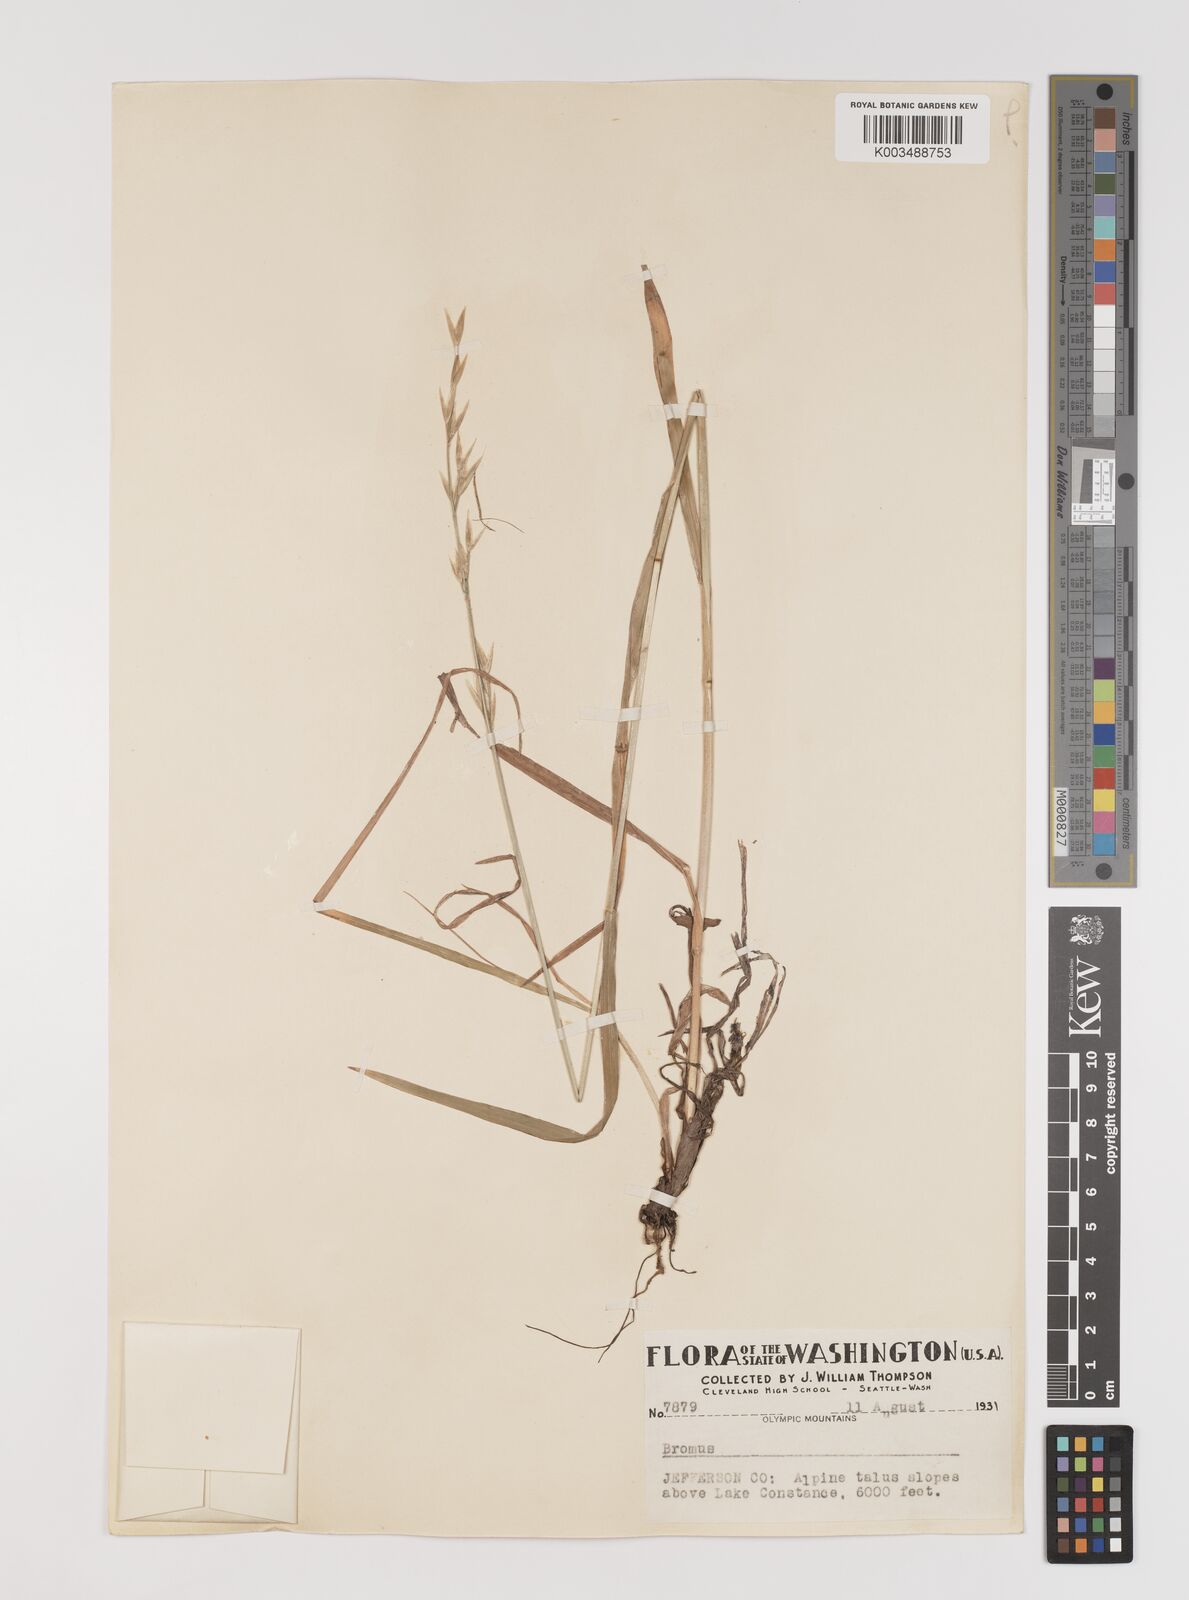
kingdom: Plantae
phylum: Tracheophyta
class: Liliopsida
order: Poales
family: Poaceae
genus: Bromus
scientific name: Bromus
